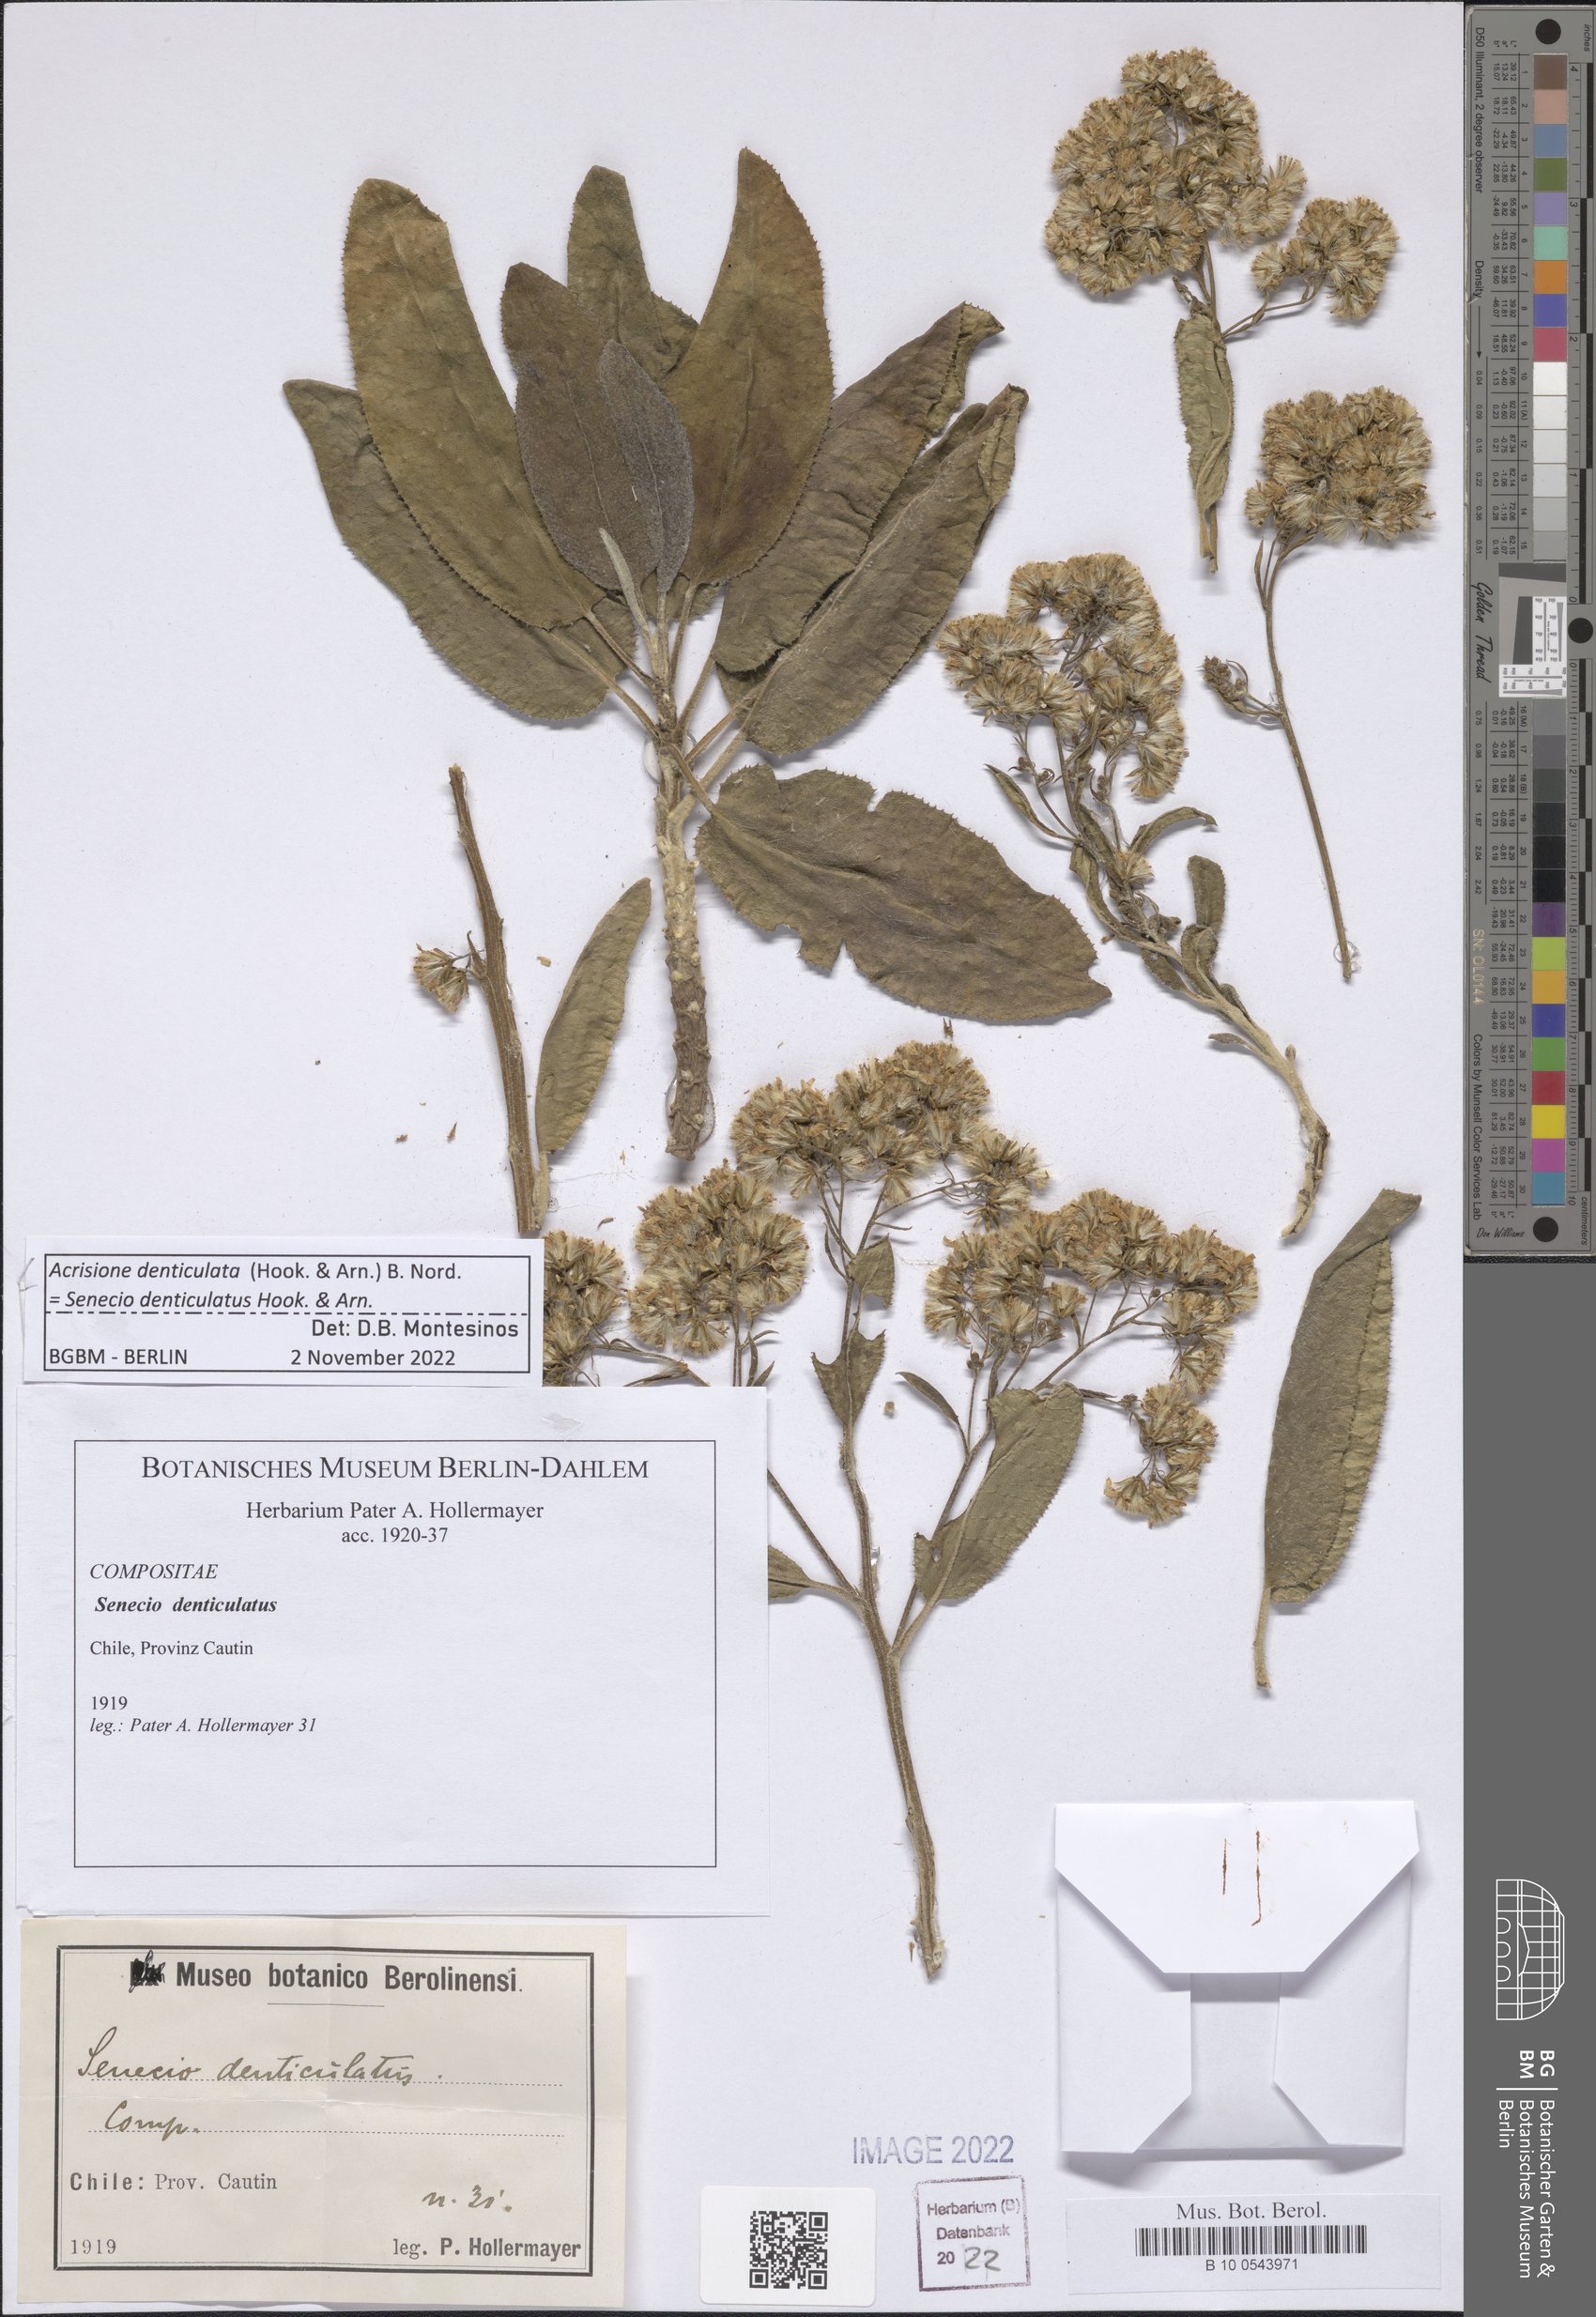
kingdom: Plantae
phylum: Tracheophyta
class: Magnoliopsida
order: Asterales
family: Asteraceae
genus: Acrisione
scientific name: Acrisione denticulata
